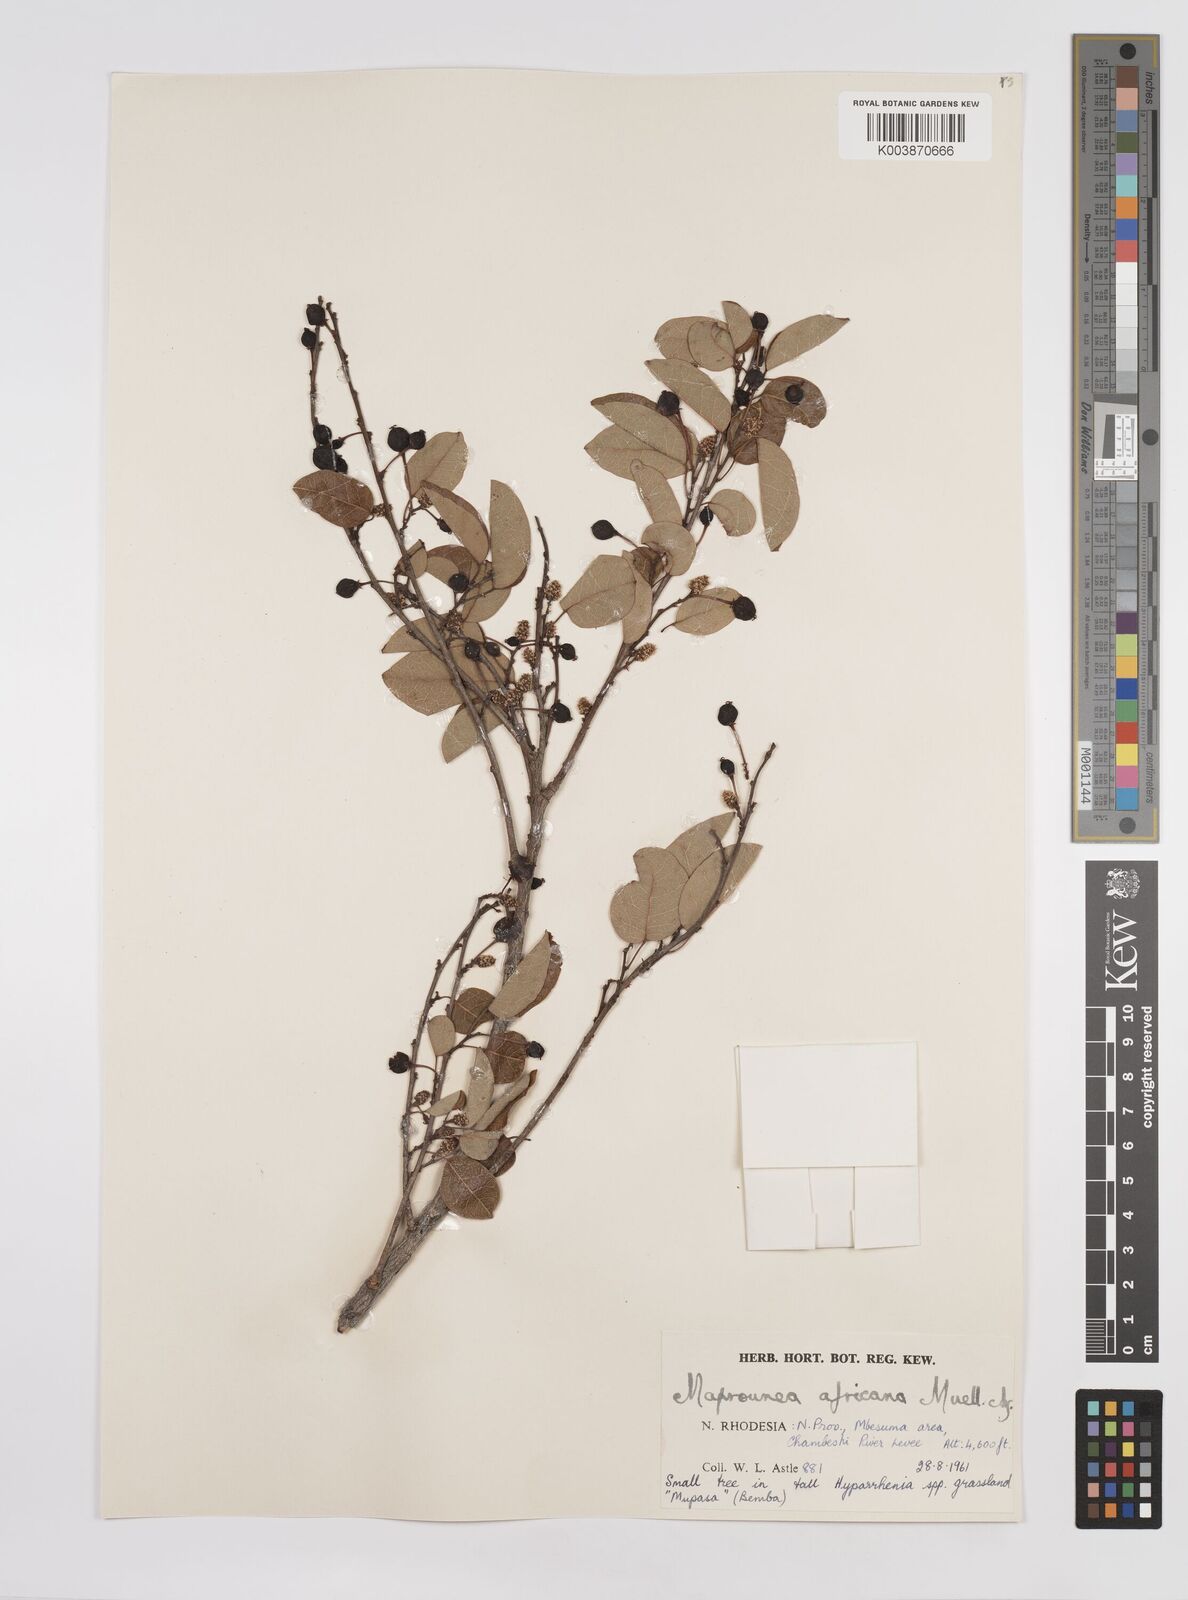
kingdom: Plantae
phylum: Tracheophyta
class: Magnoliopsida
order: Malpighiales
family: Euphorbiaceae
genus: Maprounea
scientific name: Maprounea africana
